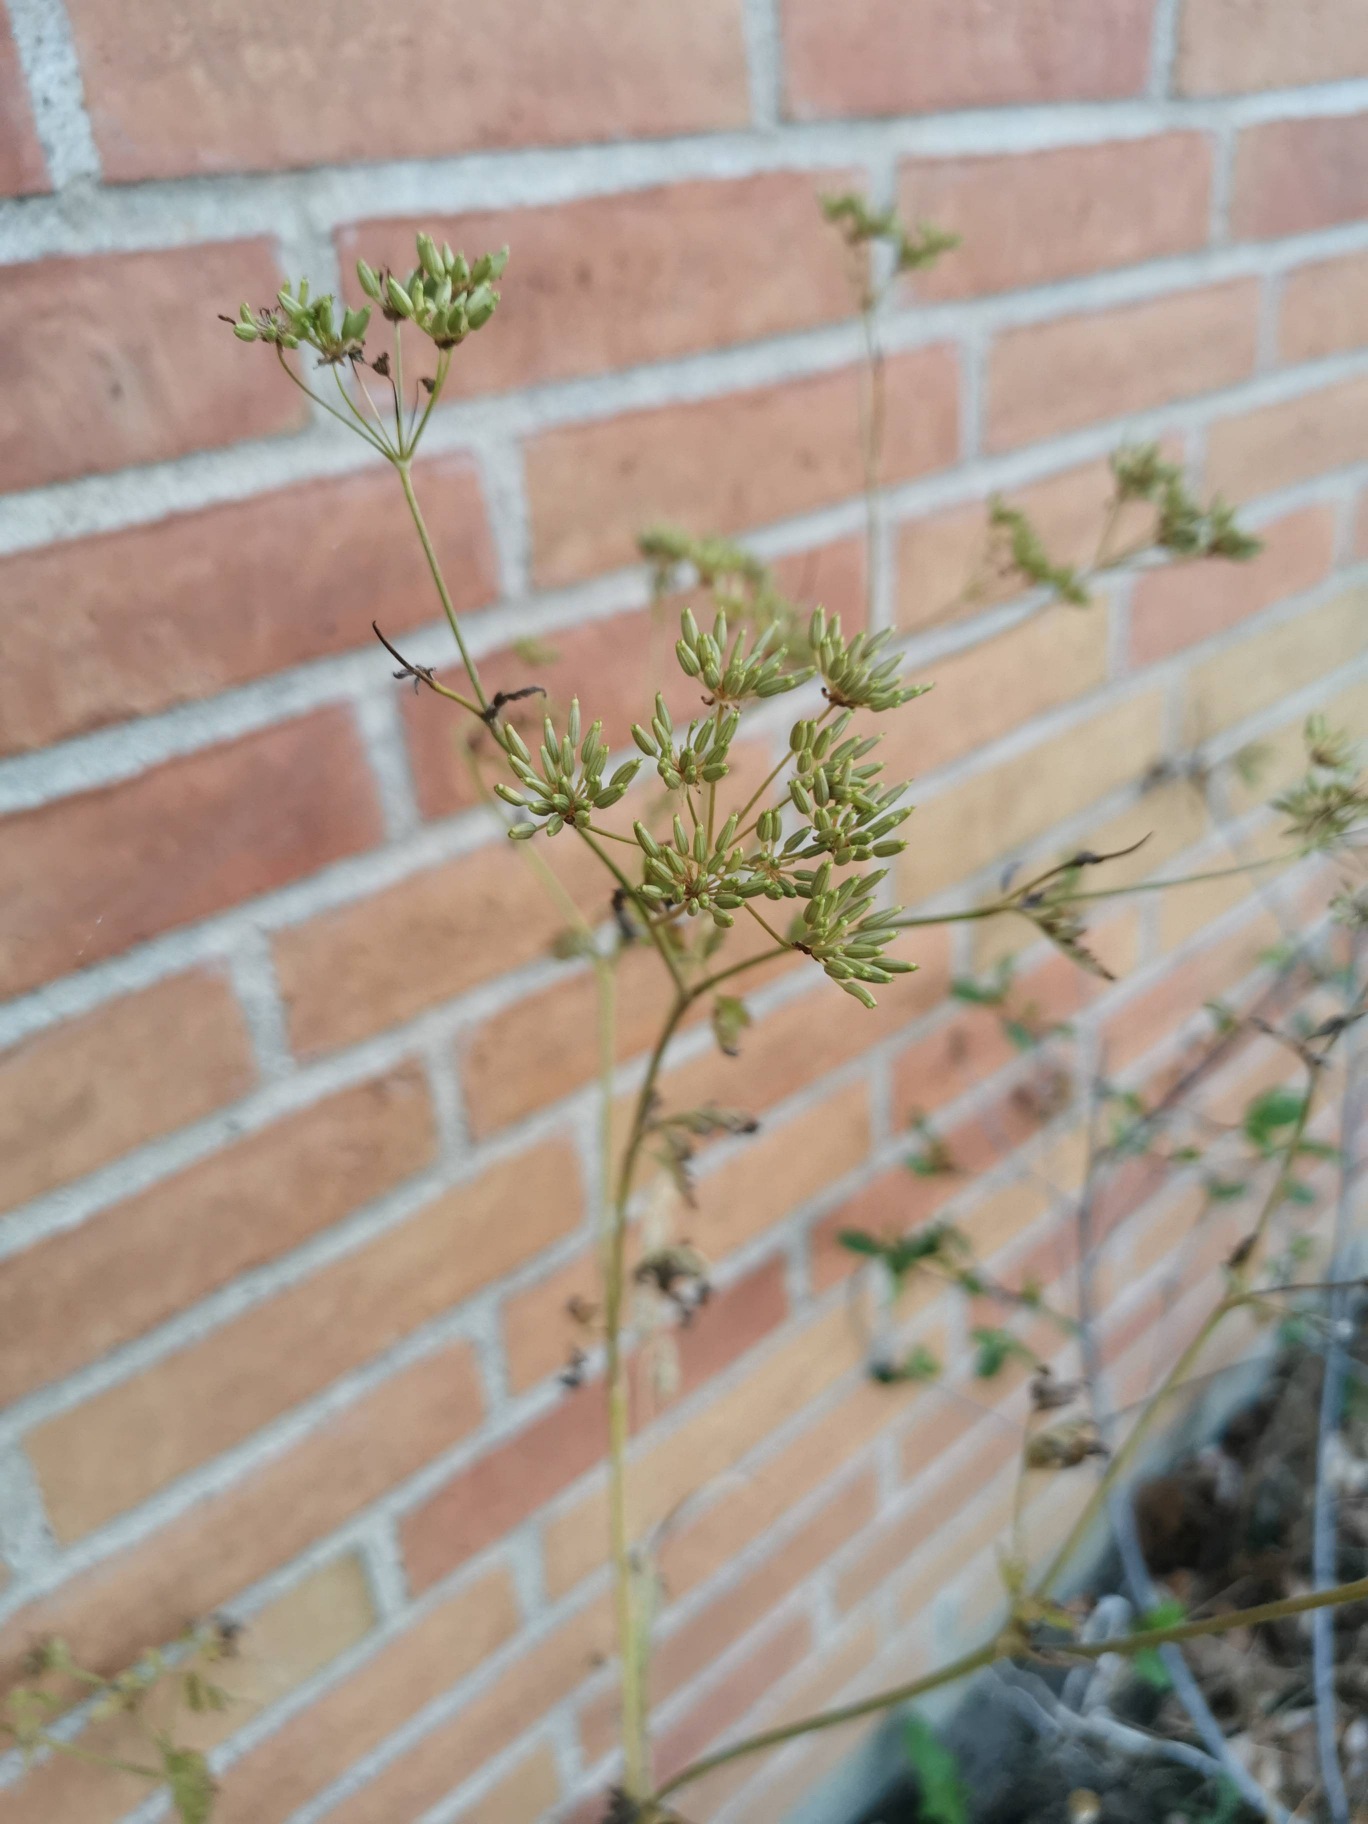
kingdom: Plantae
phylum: Tracheophyta
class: Magnoliopsida
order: Apiales
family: Apiaceae
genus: Chaerophyllum
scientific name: Chaerophyllum temulum
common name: Almindelig hulsvøb
